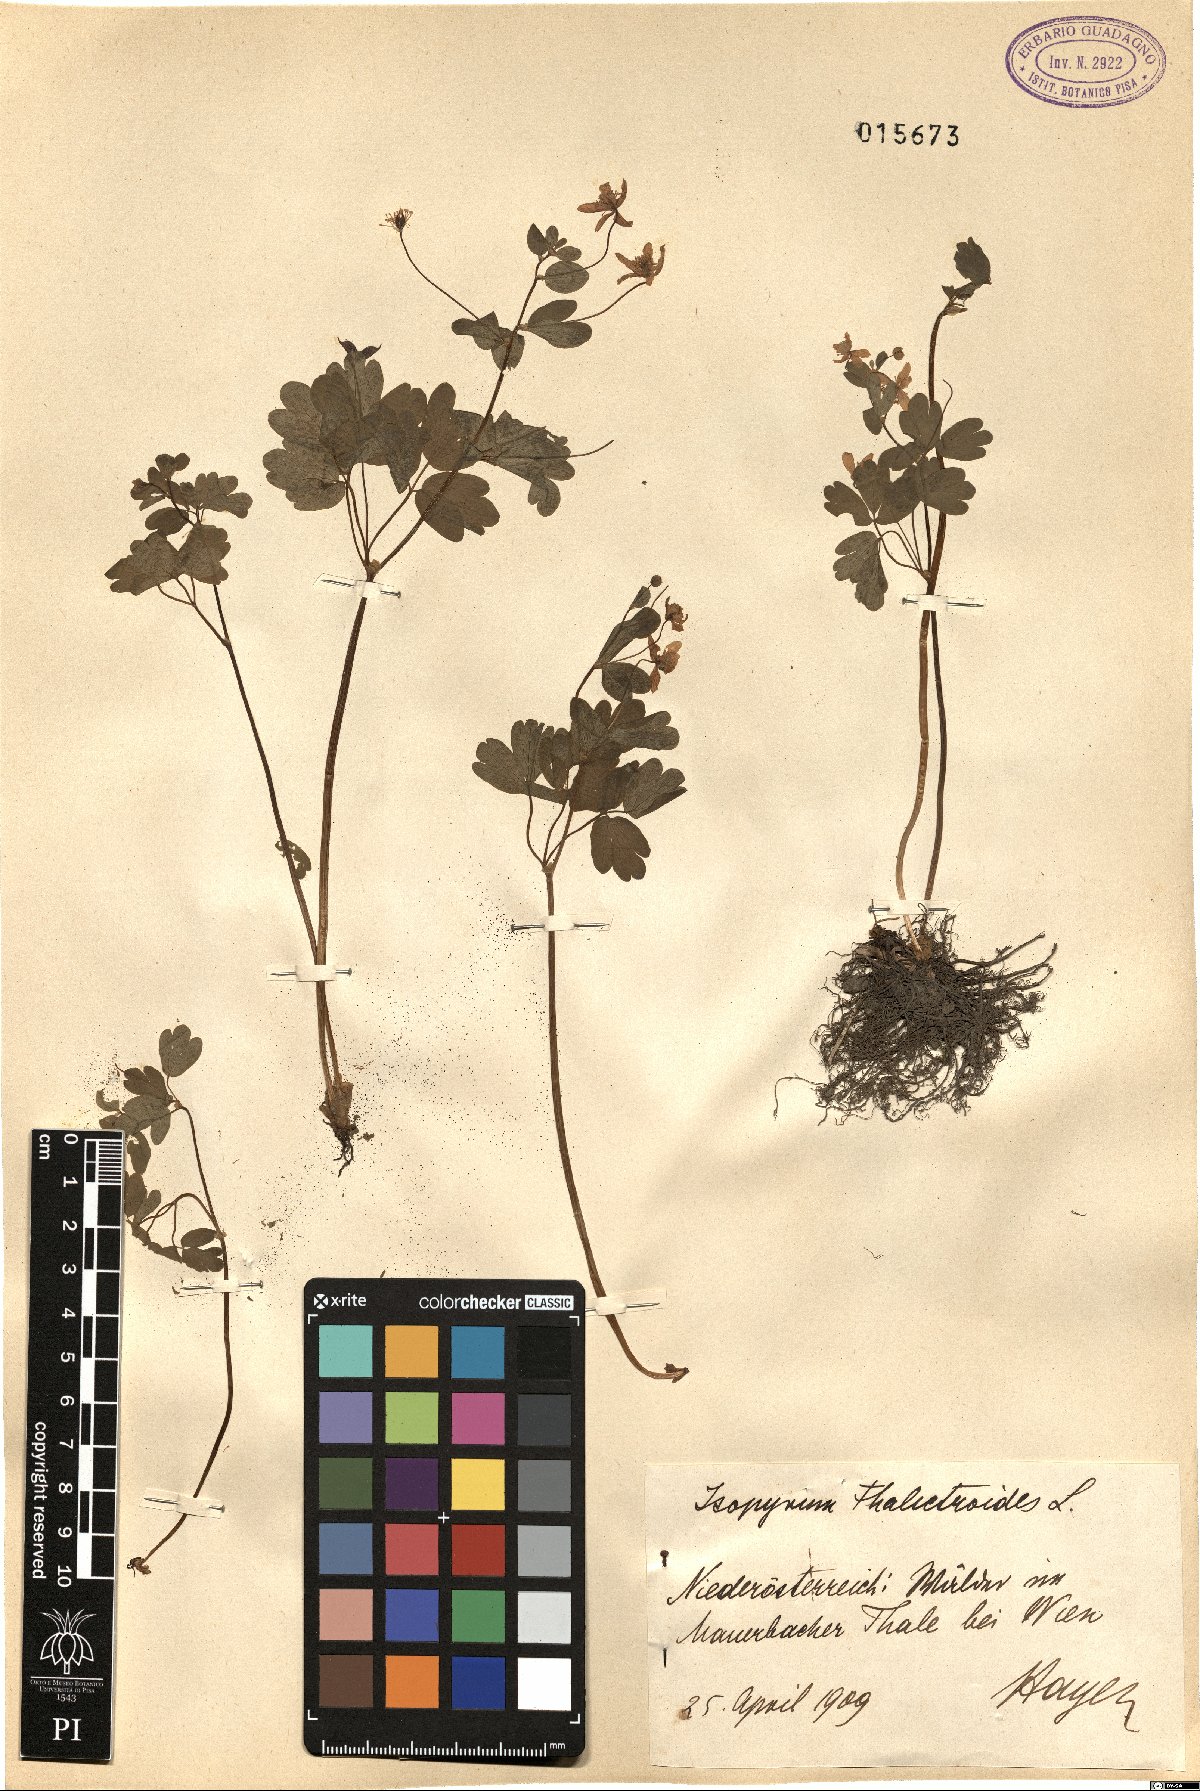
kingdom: Plantae
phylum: Tracheophyta
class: Magnoliopsida
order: Ranunculales
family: Ranunculaceae
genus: Isopyrum
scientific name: Isopyrum thalictroides
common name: Isopyrum
